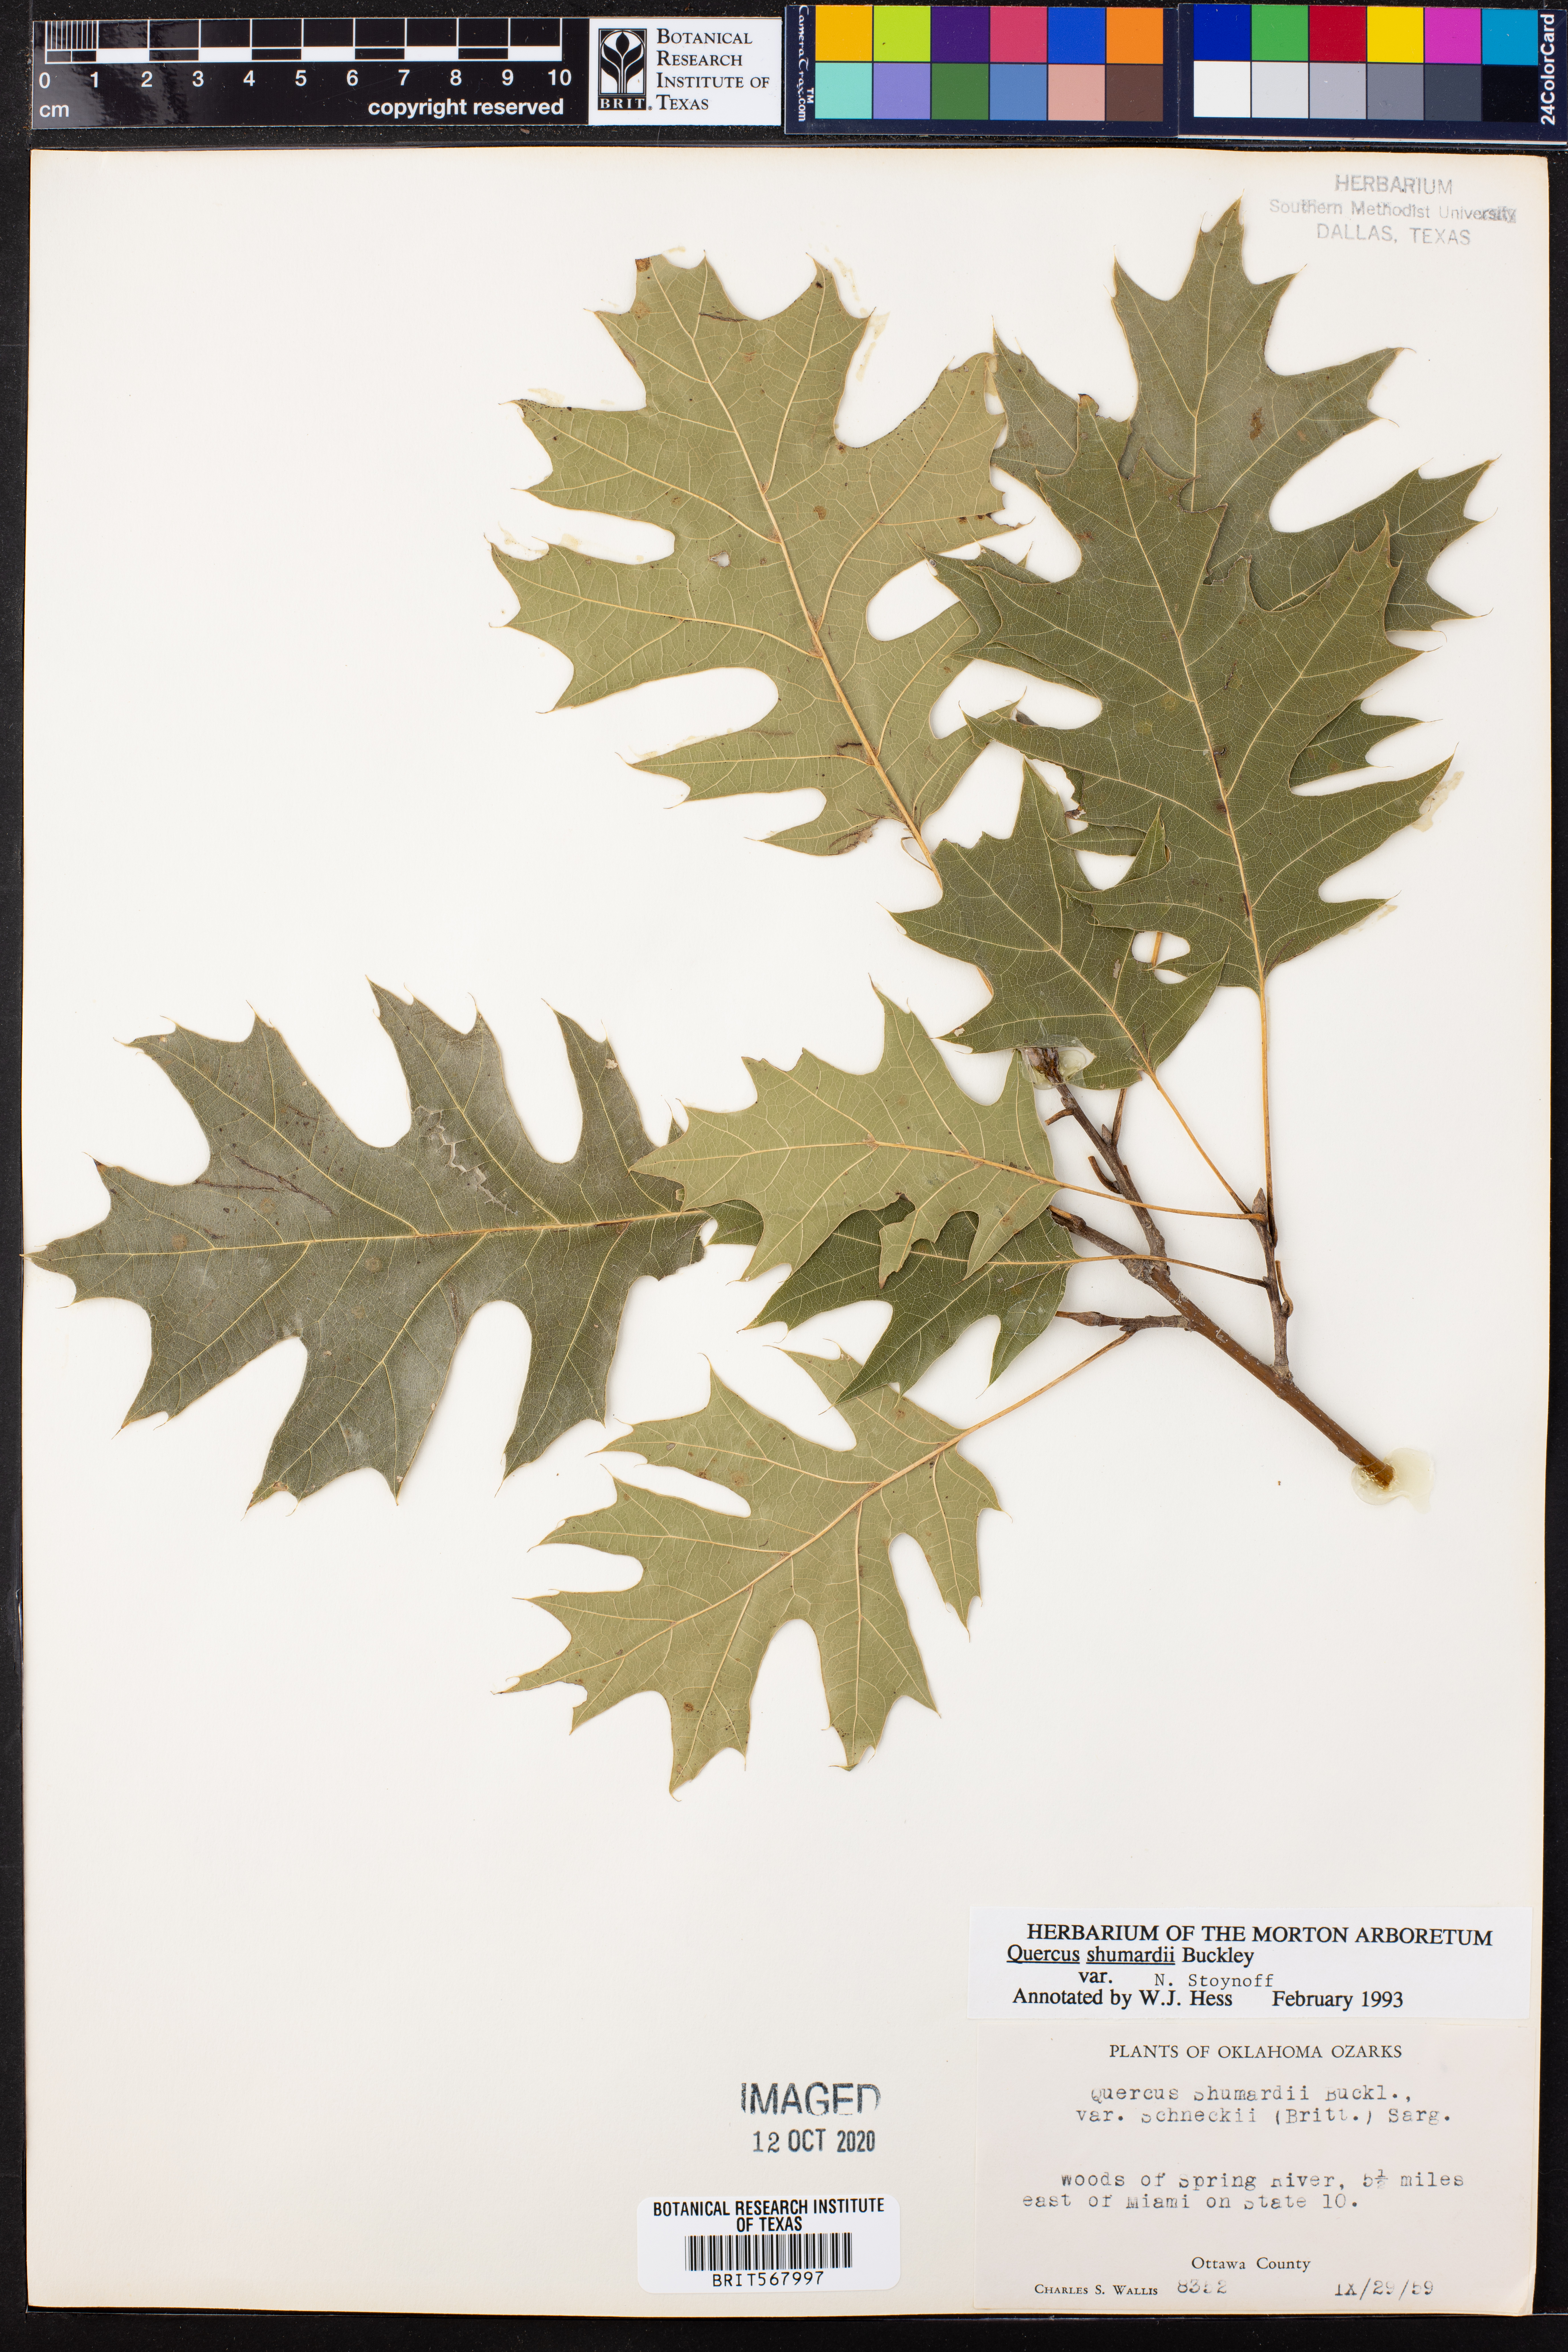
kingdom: Plantae
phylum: Tracheophyta
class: Magnoliopsida
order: Fagales
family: Fagaceae
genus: Quercus
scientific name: Quercus shumardii
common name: Shumard oak
